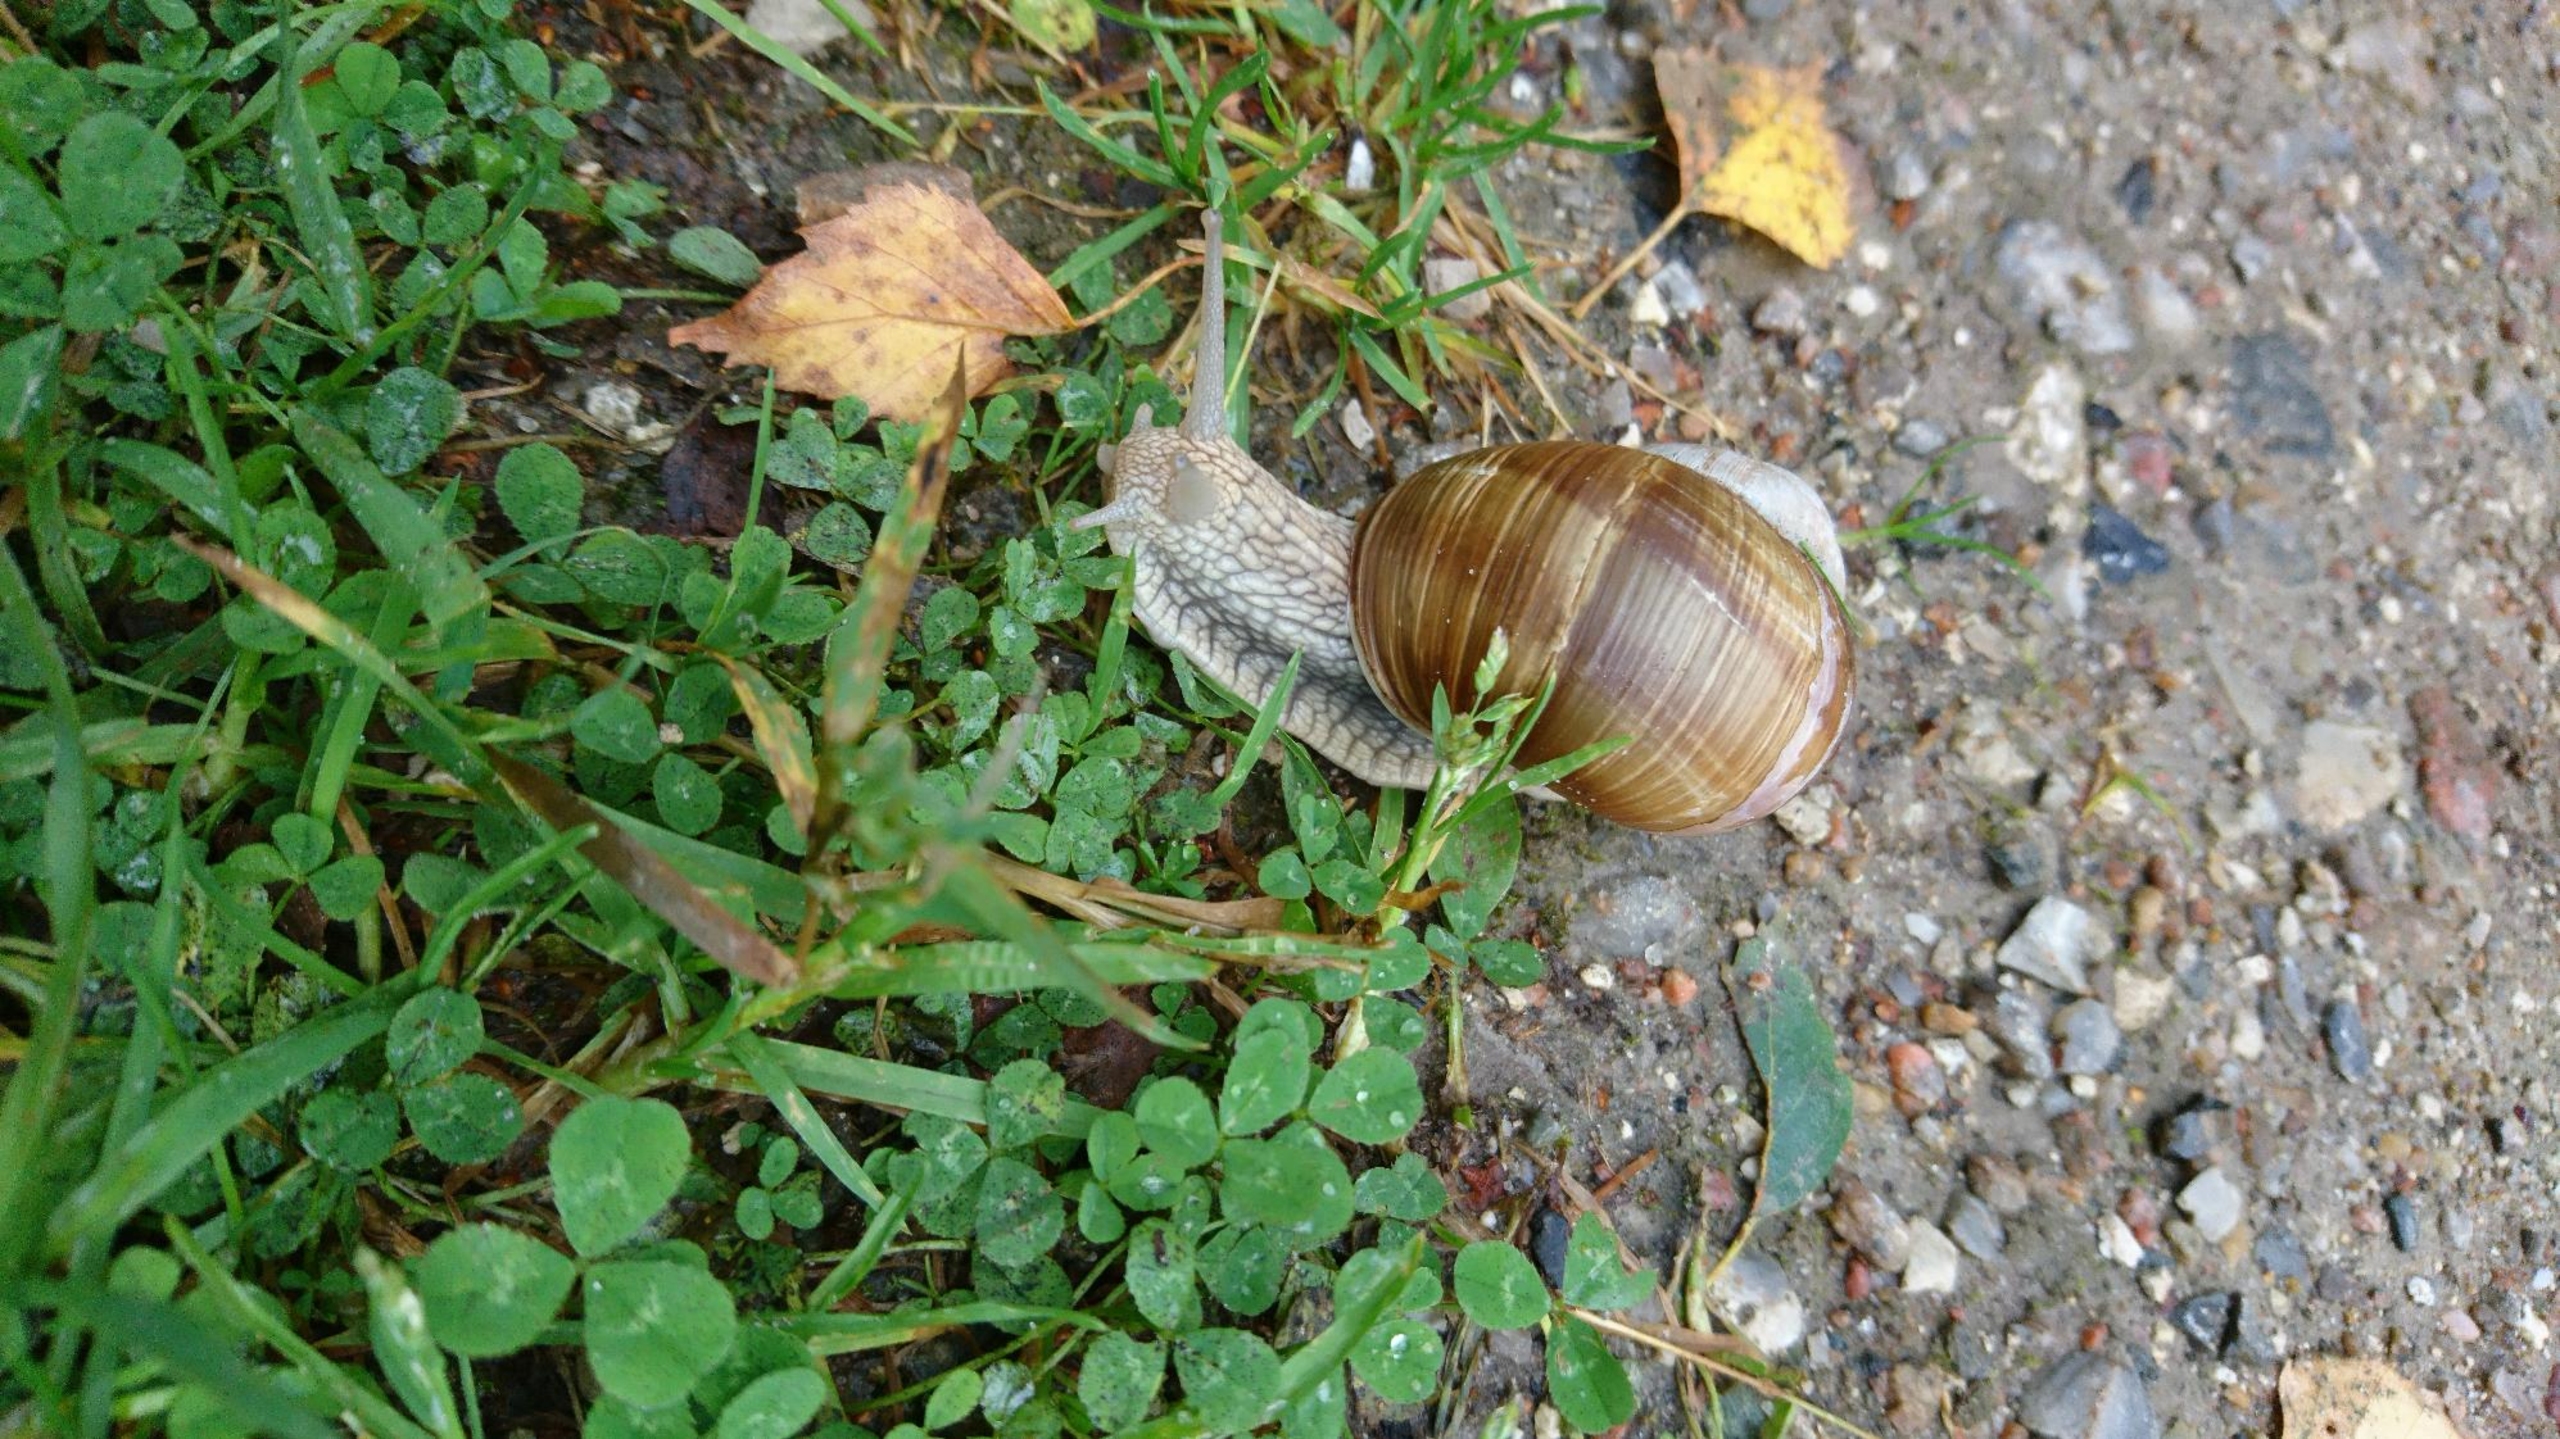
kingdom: Animalia
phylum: Mollusca
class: Gastropoda
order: Stylommatophora
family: Helicidae
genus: Helix
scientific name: Helix pomatia
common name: Vinbjergsnegl
